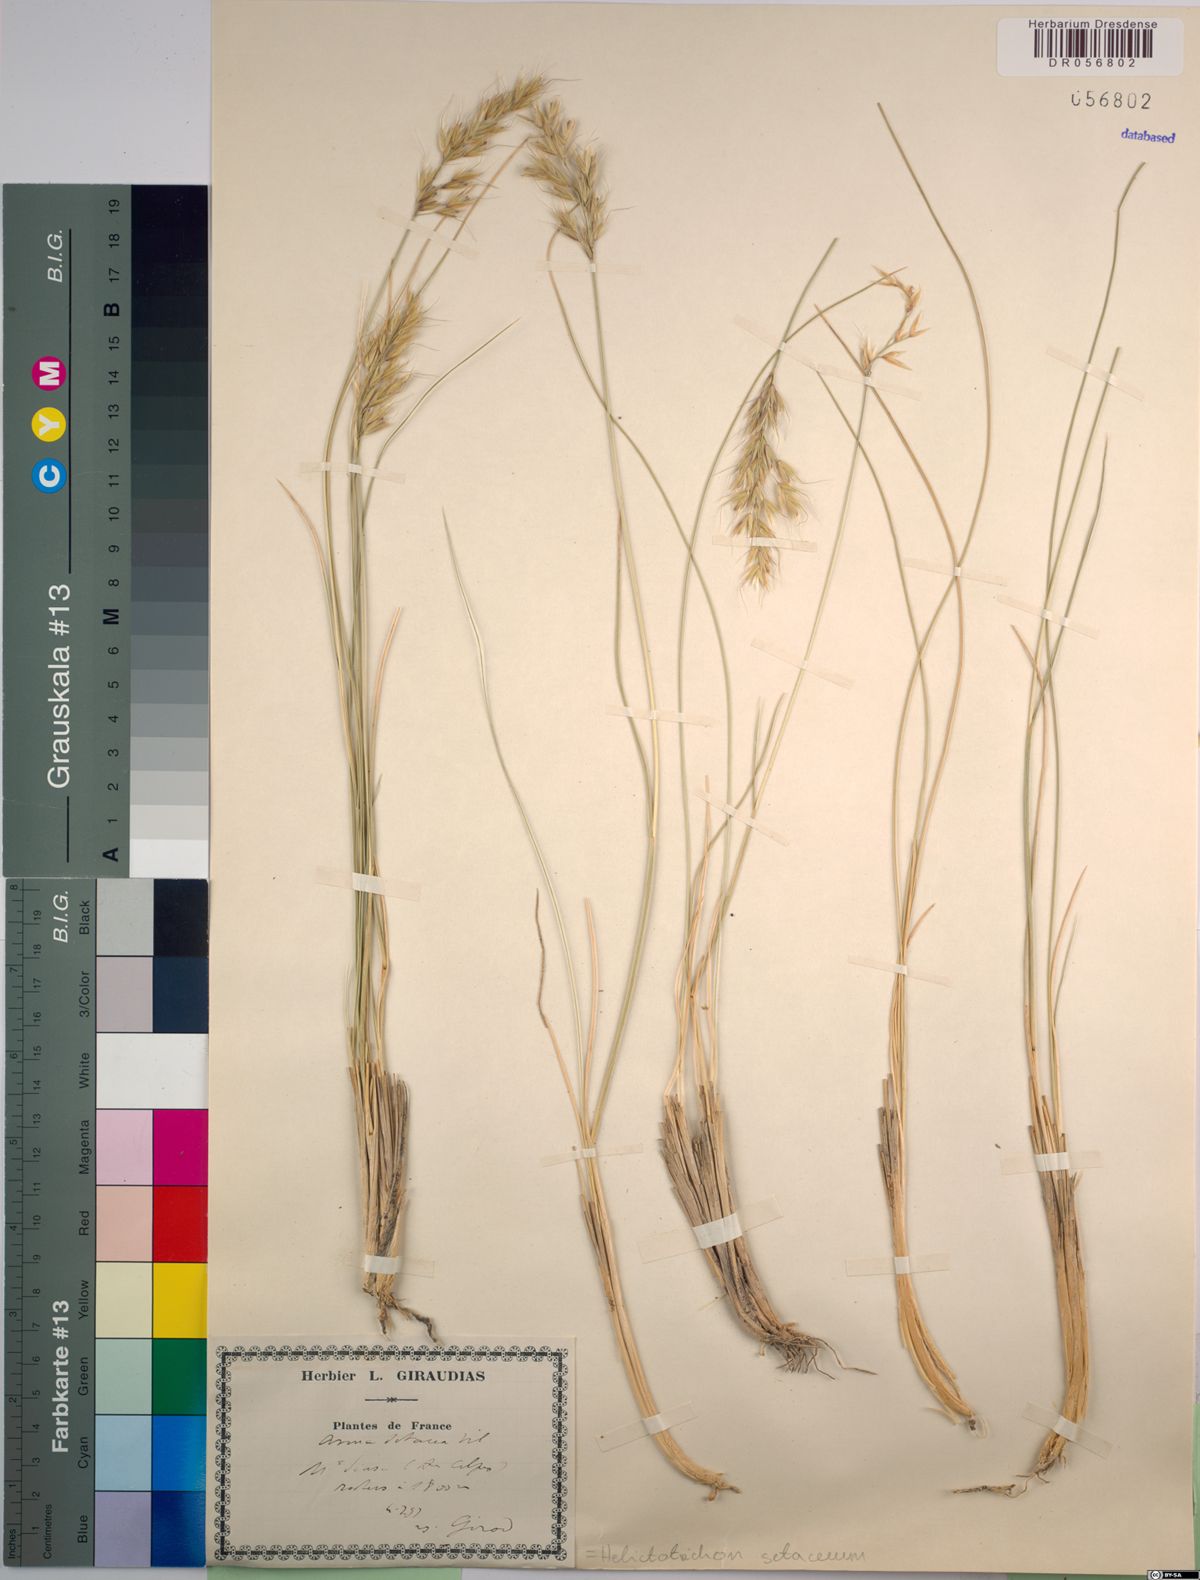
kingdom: Plantae
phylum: Tracheophyta
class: Liliopsida
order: Poales
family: Poaceae
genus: Helictotrichon
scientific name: Helictotrichon setaceum
